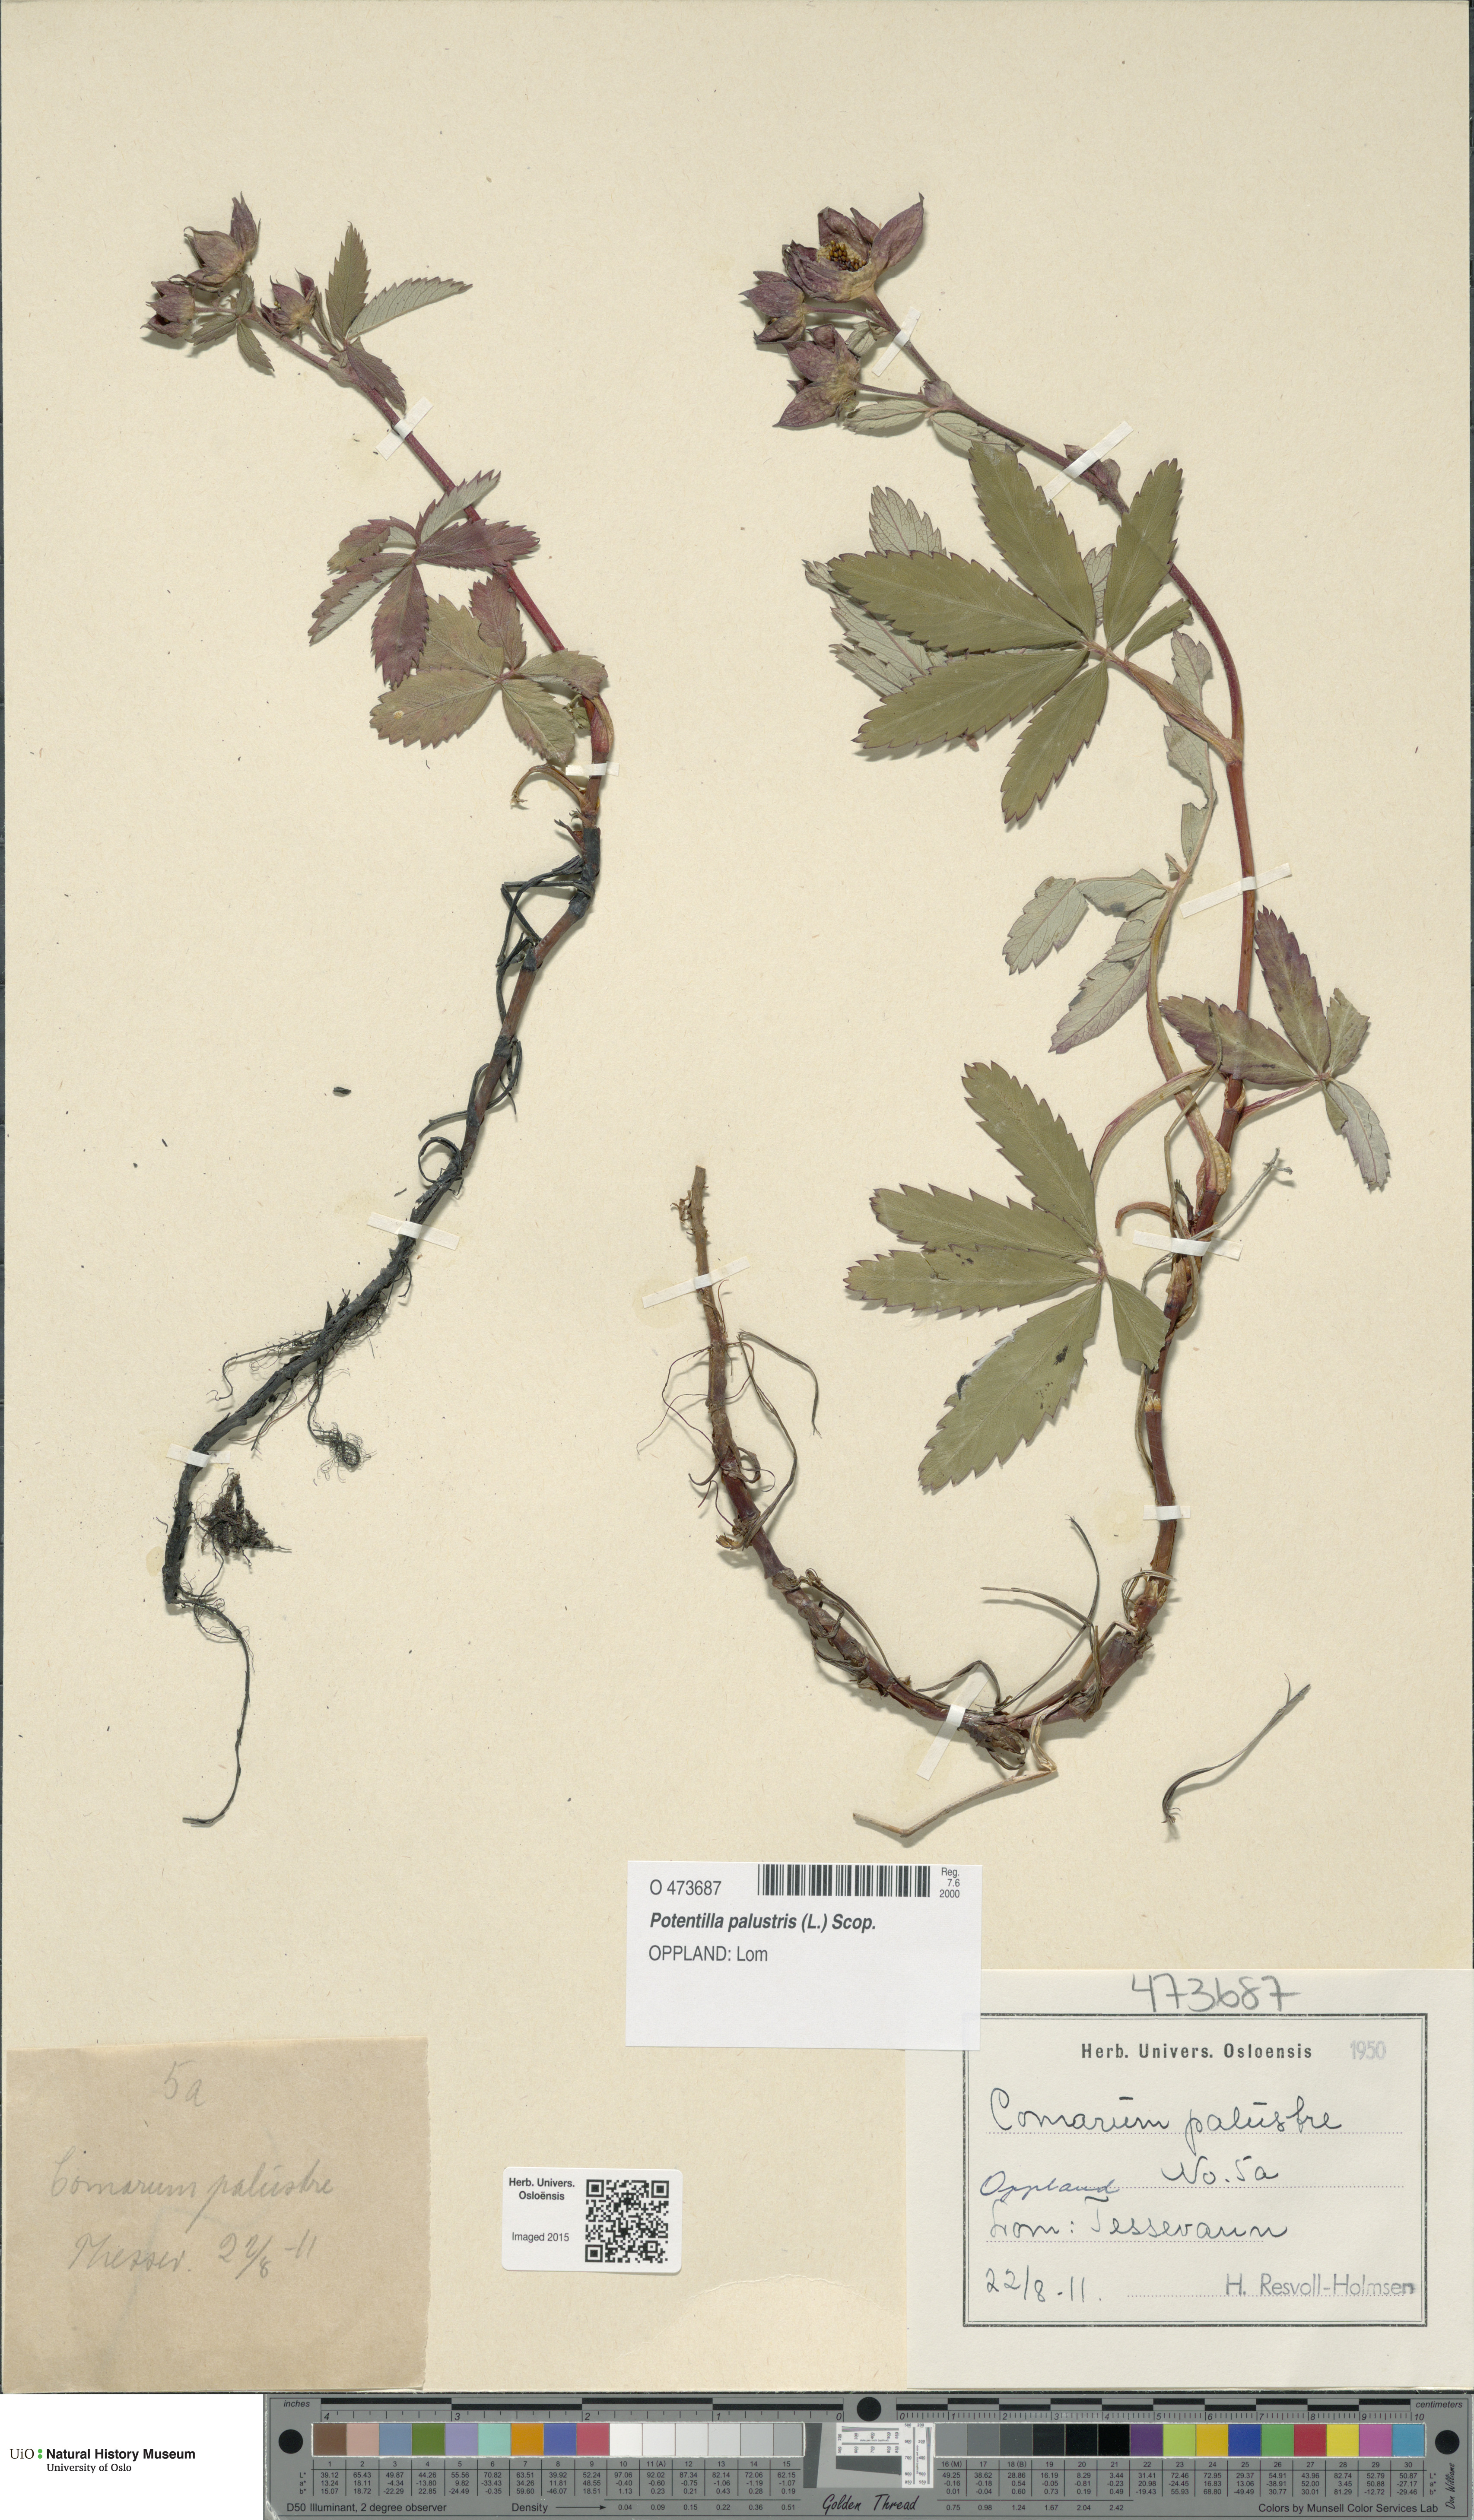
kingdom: Plantae
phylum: Tracheophyta
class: Magnoliopsida
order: Rosales
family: Rosaceae
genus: Comarum
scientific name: Comarum palustre
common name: Marsh cinquefoil
